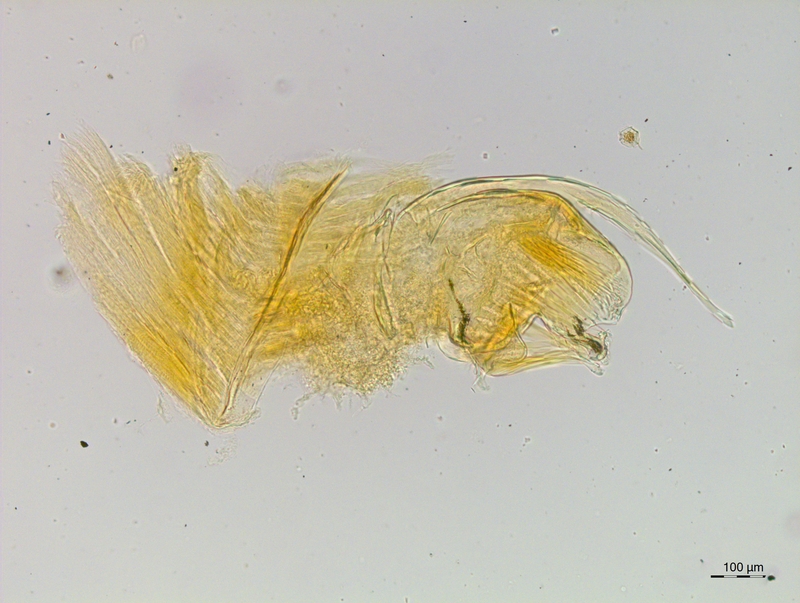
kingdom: Animalia
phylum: Arthropoda
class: Diplopoda
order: Chordeumatida
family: Craspedosomatidae
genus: Craspedosoma
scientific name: Craspedosoma rawlinsii
